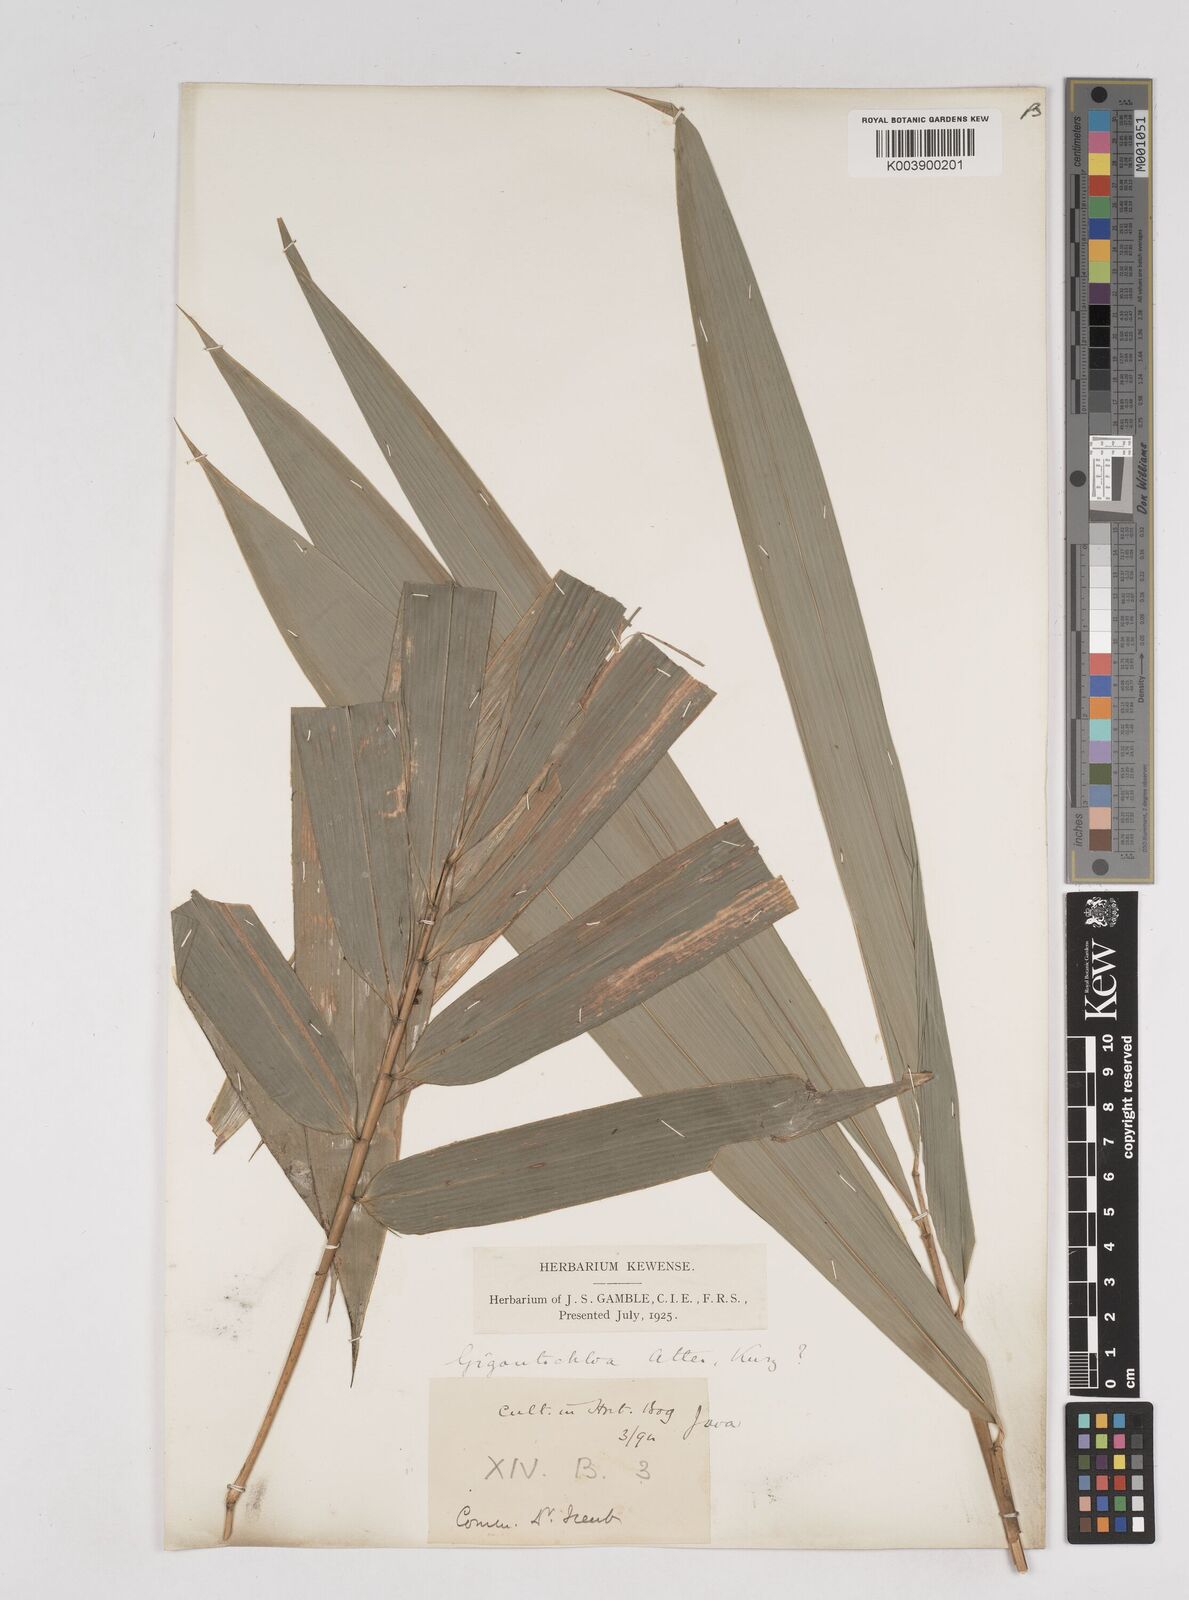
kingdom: Plantae
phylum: Tracheophyta
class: Liliopsida
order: Poales
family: Poaceae
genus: Gigantochloa
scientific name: Gigantochloa atter
